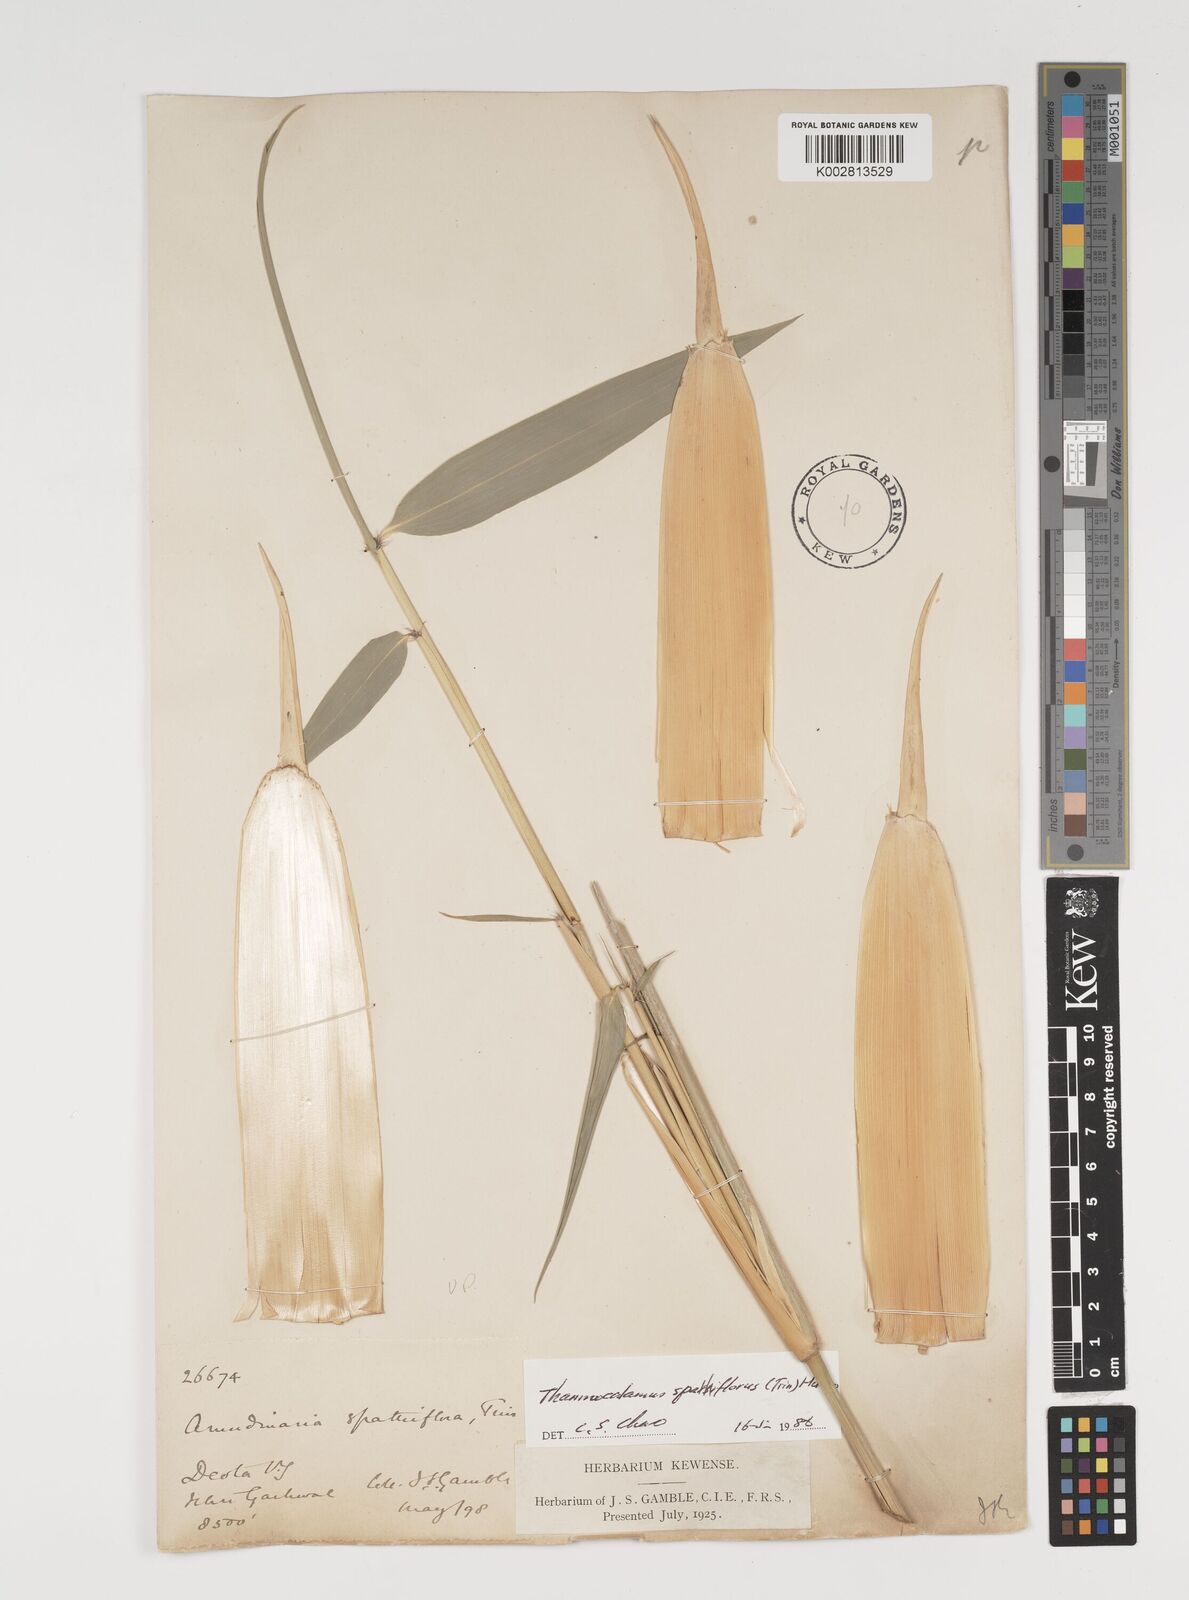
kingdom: Plantae
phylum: Tracheophyta
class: Liliopsida
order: Poales
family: Poaceae
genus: Thamnocalamus
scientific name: Thamnocalamus spathiflorus
